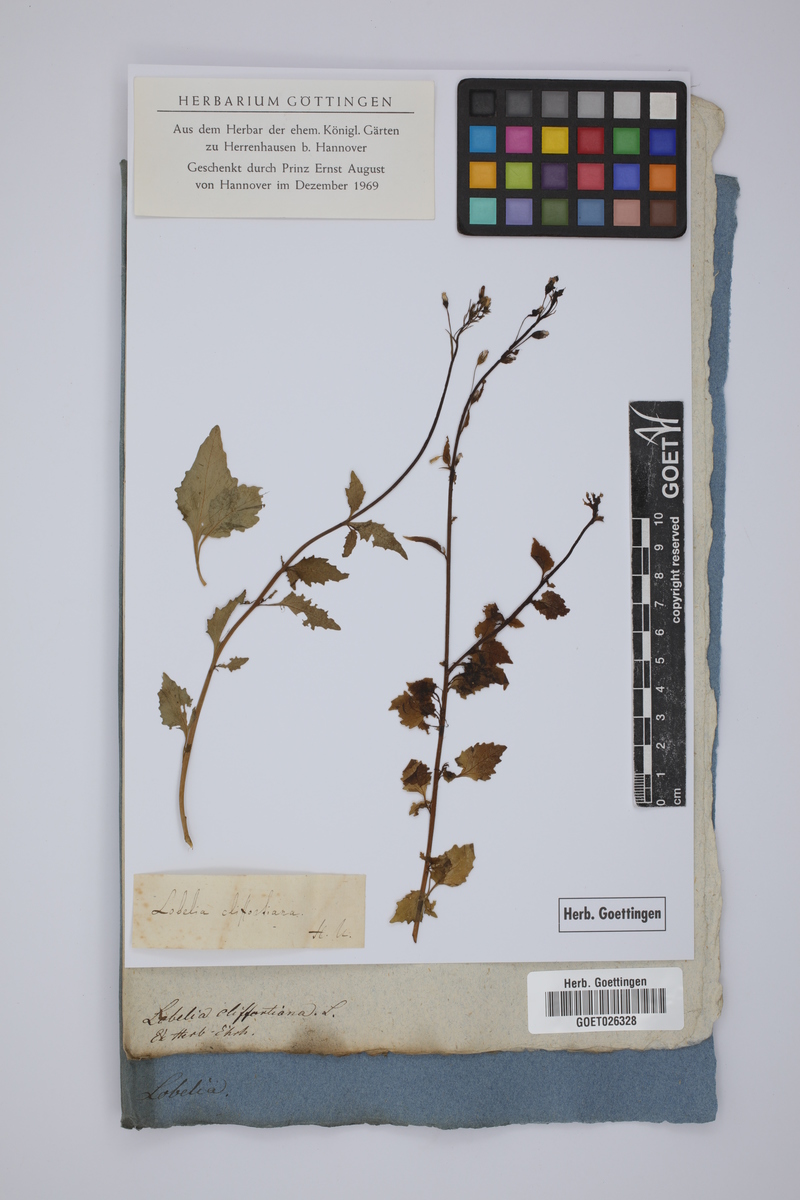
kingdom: Plantae
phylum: Tracheophyta
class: Magnoliopsida
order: Asterales
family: Campanulaceae
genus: Lobelia
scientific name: Lobelia cliffortiana
